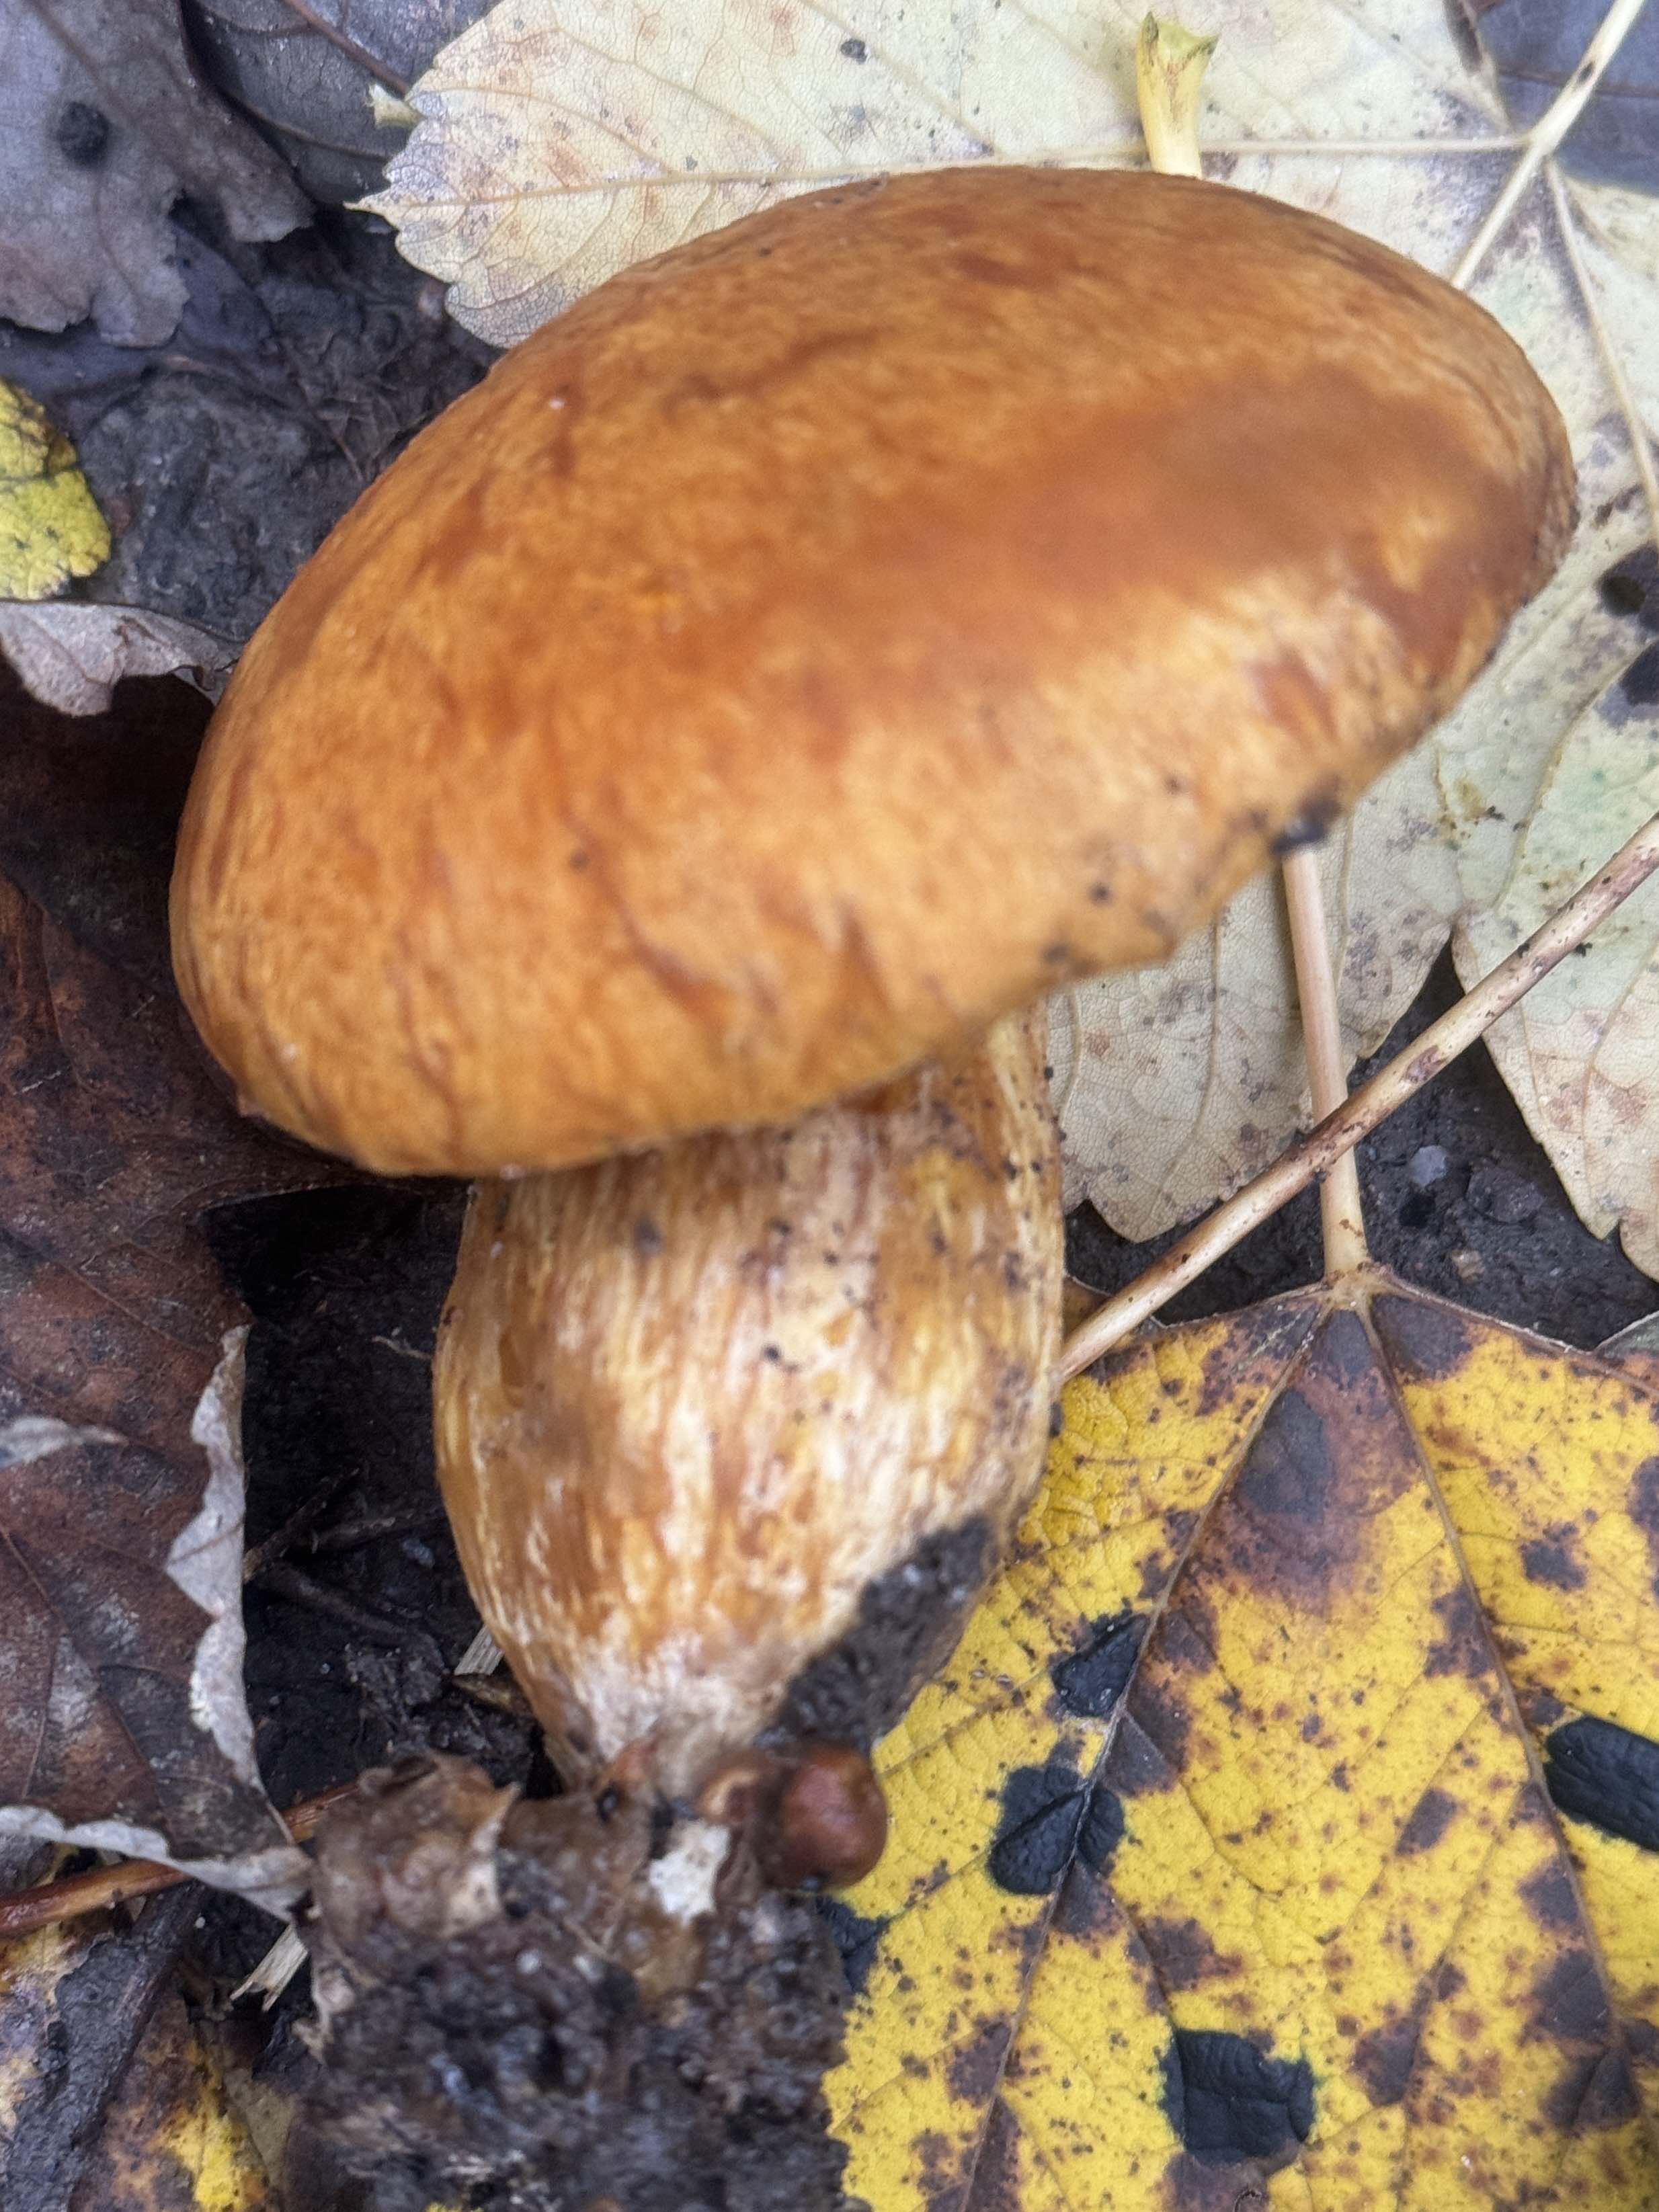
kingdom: Fungi
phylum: Basidiomycota
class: Agaricomycetes
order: Agaricales
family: Hymenogastraceae
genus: Gymnopilus
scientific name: Gymnopilus spectabilis
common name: fibret flammehat
